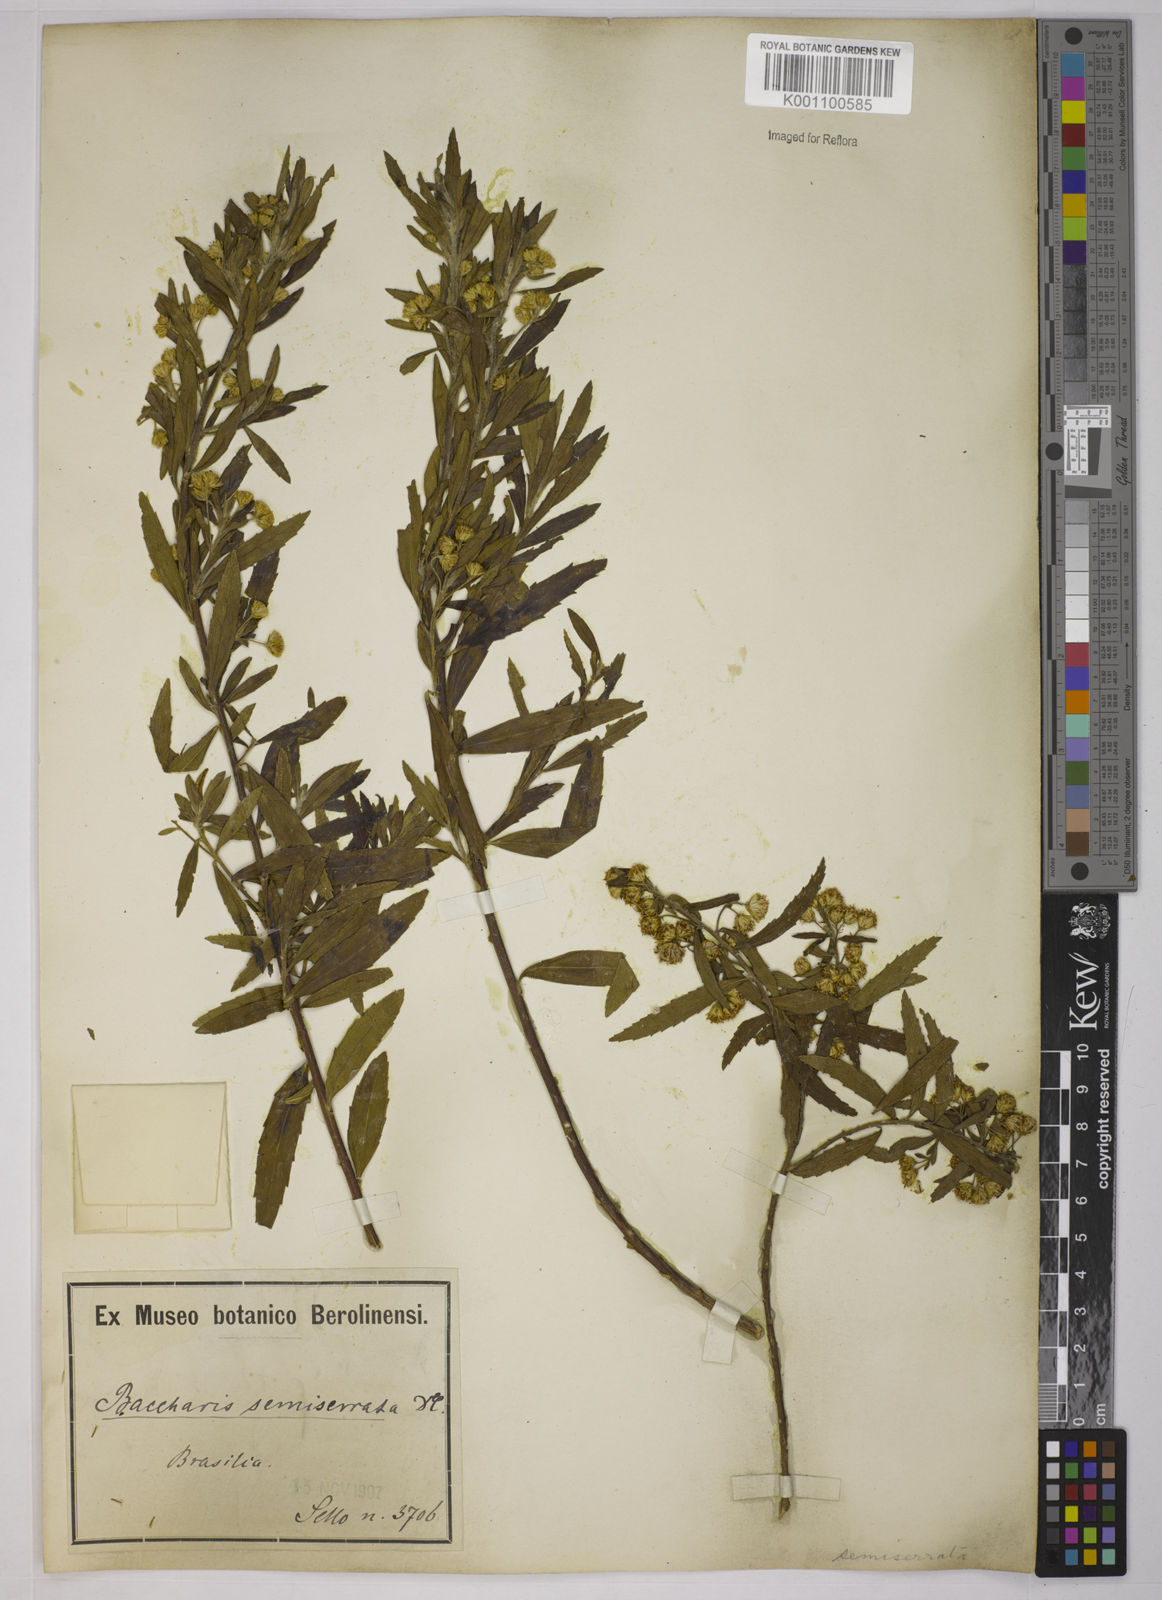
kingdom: Plantae
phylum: Tracheophyta
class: Magnoliopsida
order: Asterales
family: Asteraceae
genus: Baccharis
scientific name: Baccharis gnidiifolia
